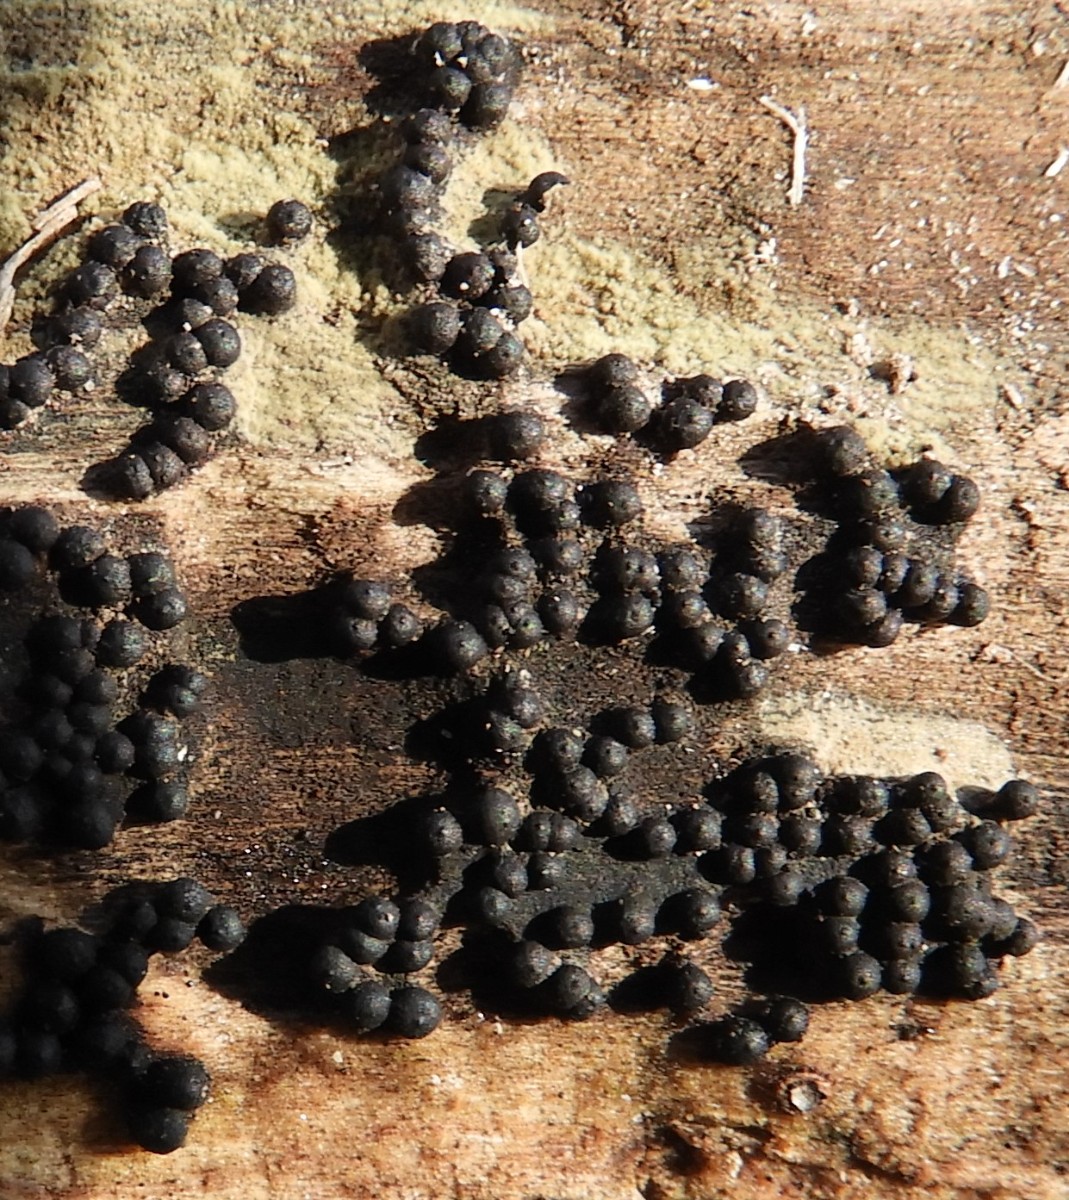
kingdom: Fungi
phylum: Ascomycota
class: Sordariomycetes
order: Xylariales
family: Xylariaceae
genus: Rosellinia
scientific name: Rosellinia
